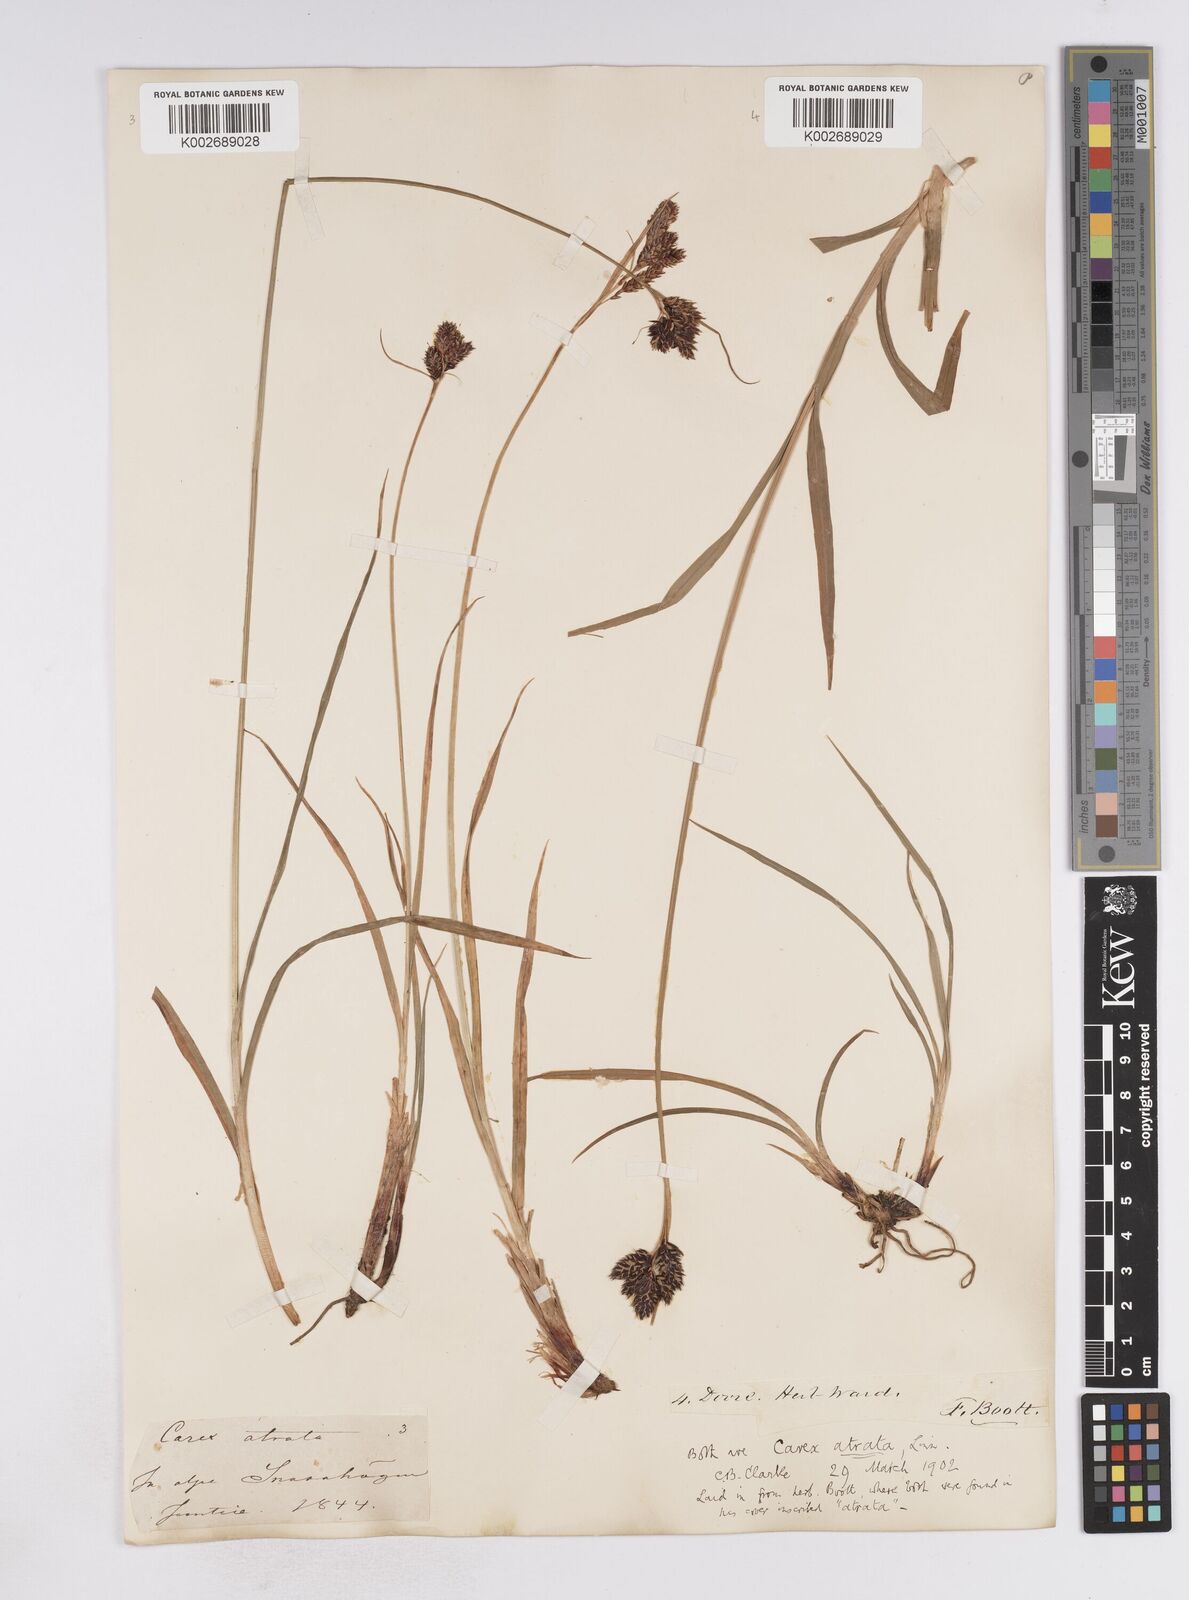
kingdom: Plantae
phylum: Tracheophyta
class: Liliopsida
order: Poales
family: Cyperaceae
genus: Carex
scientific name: Carex atrata
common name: Black alpine sedge
